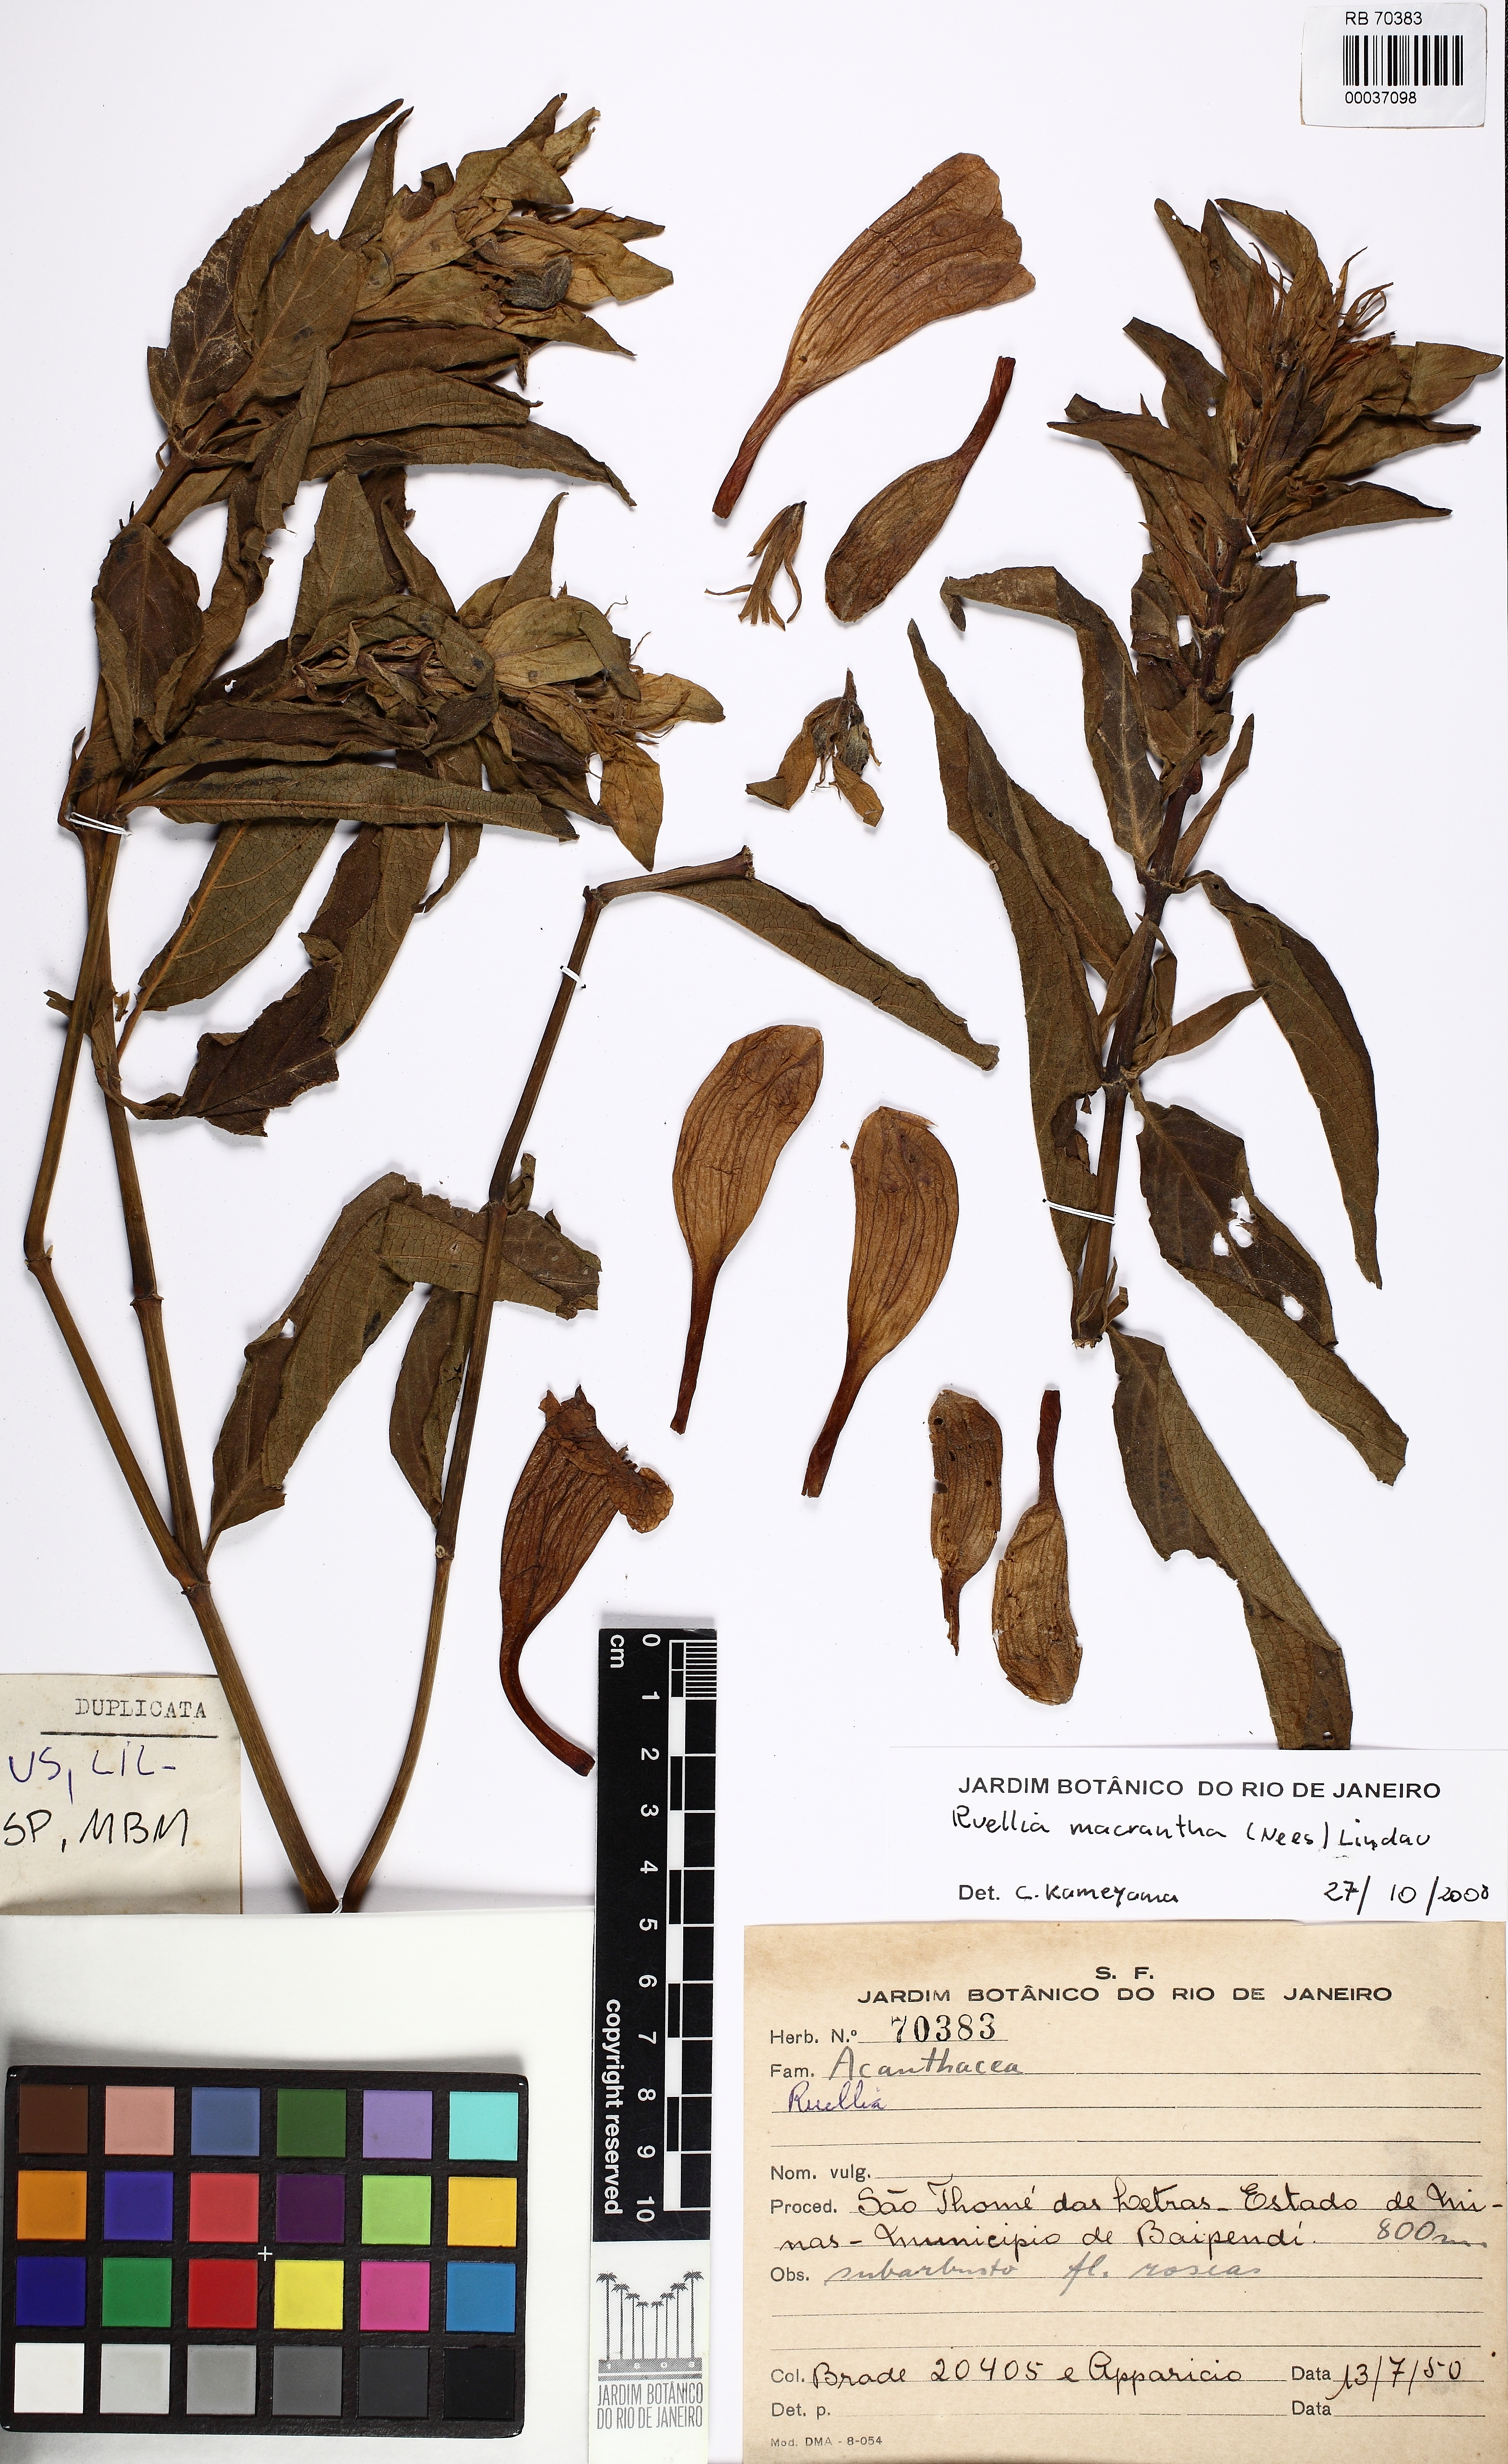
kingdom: Plantae
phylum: Tracheophyta
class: Magnoliopsida
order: Lamiales
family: Acanthaceae
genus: Ruellia
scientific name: Ruellia macrantha
